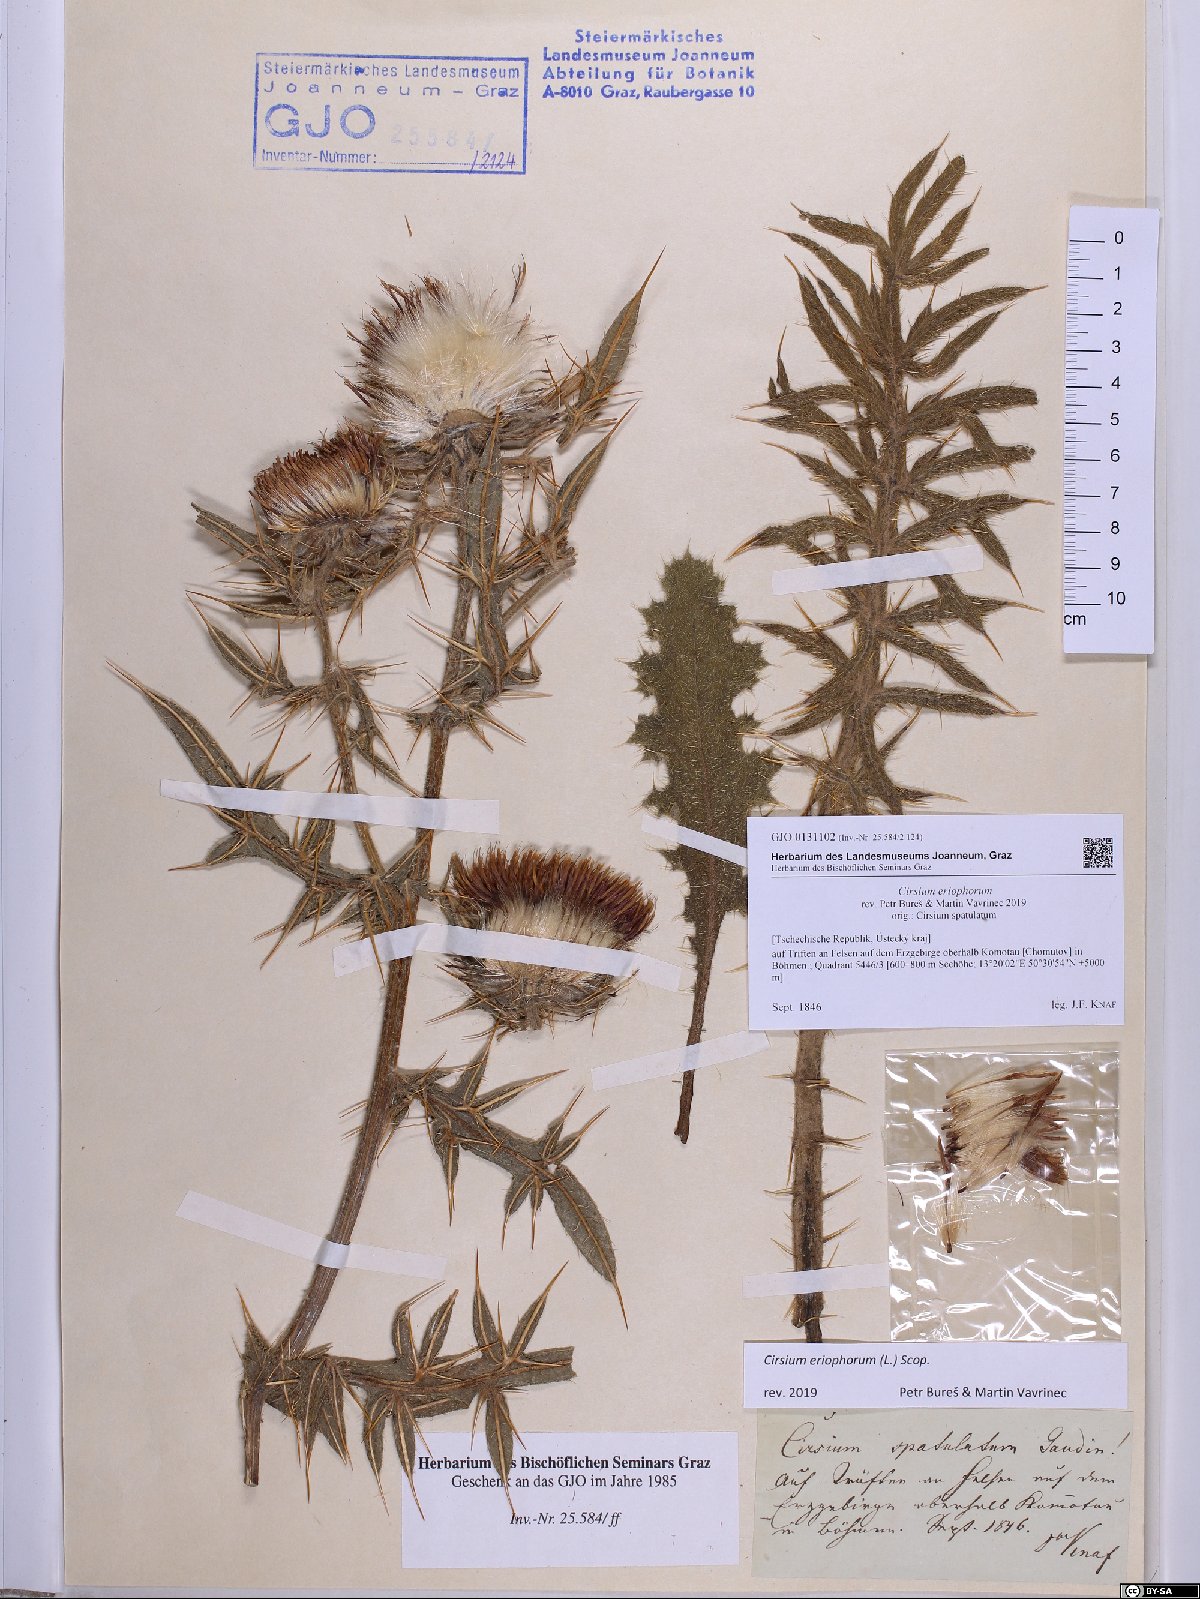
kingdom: Plantae
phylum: Tracheophyta
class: Magnoliopsida
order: Asterales
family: Asteraceae
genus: Lophiolepis
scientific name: Lophiolepis eriophora
